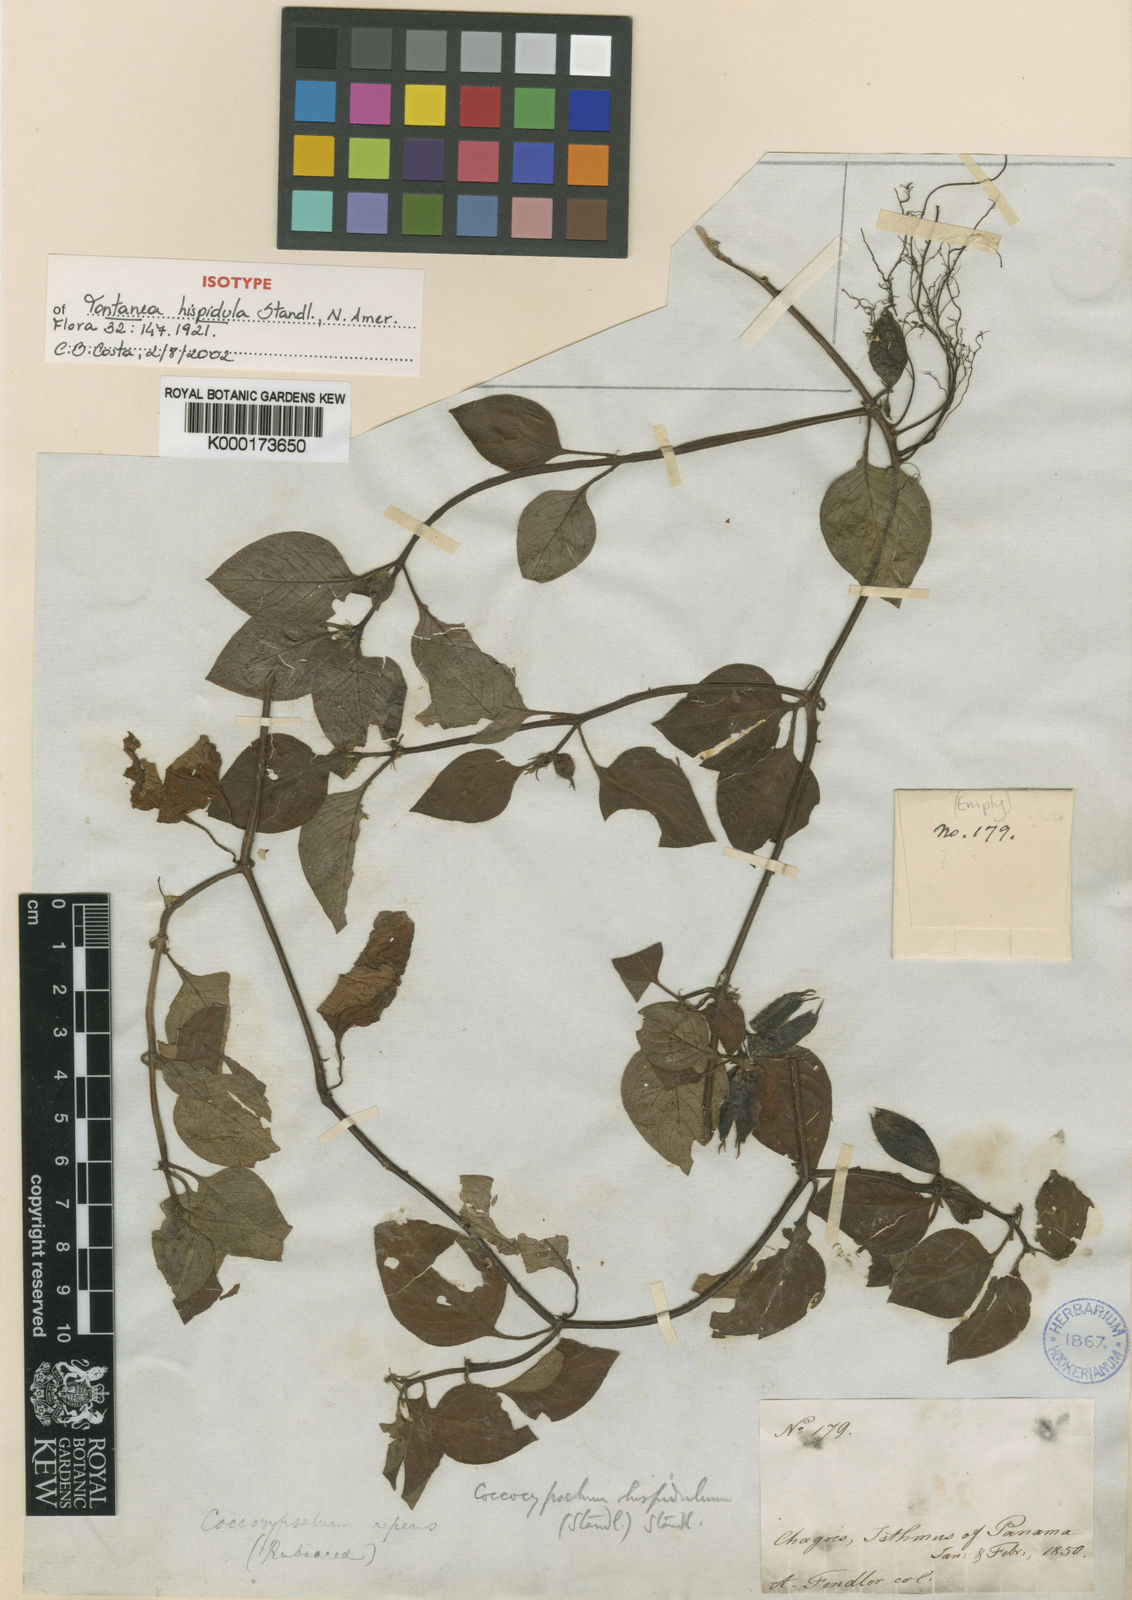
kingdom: Plantae
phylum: Tracheophyta
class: Magnoliopsida
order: Gentianales
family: Rubiaceae
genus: Coccocypselum
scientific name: Coccocypselum hispidulum
